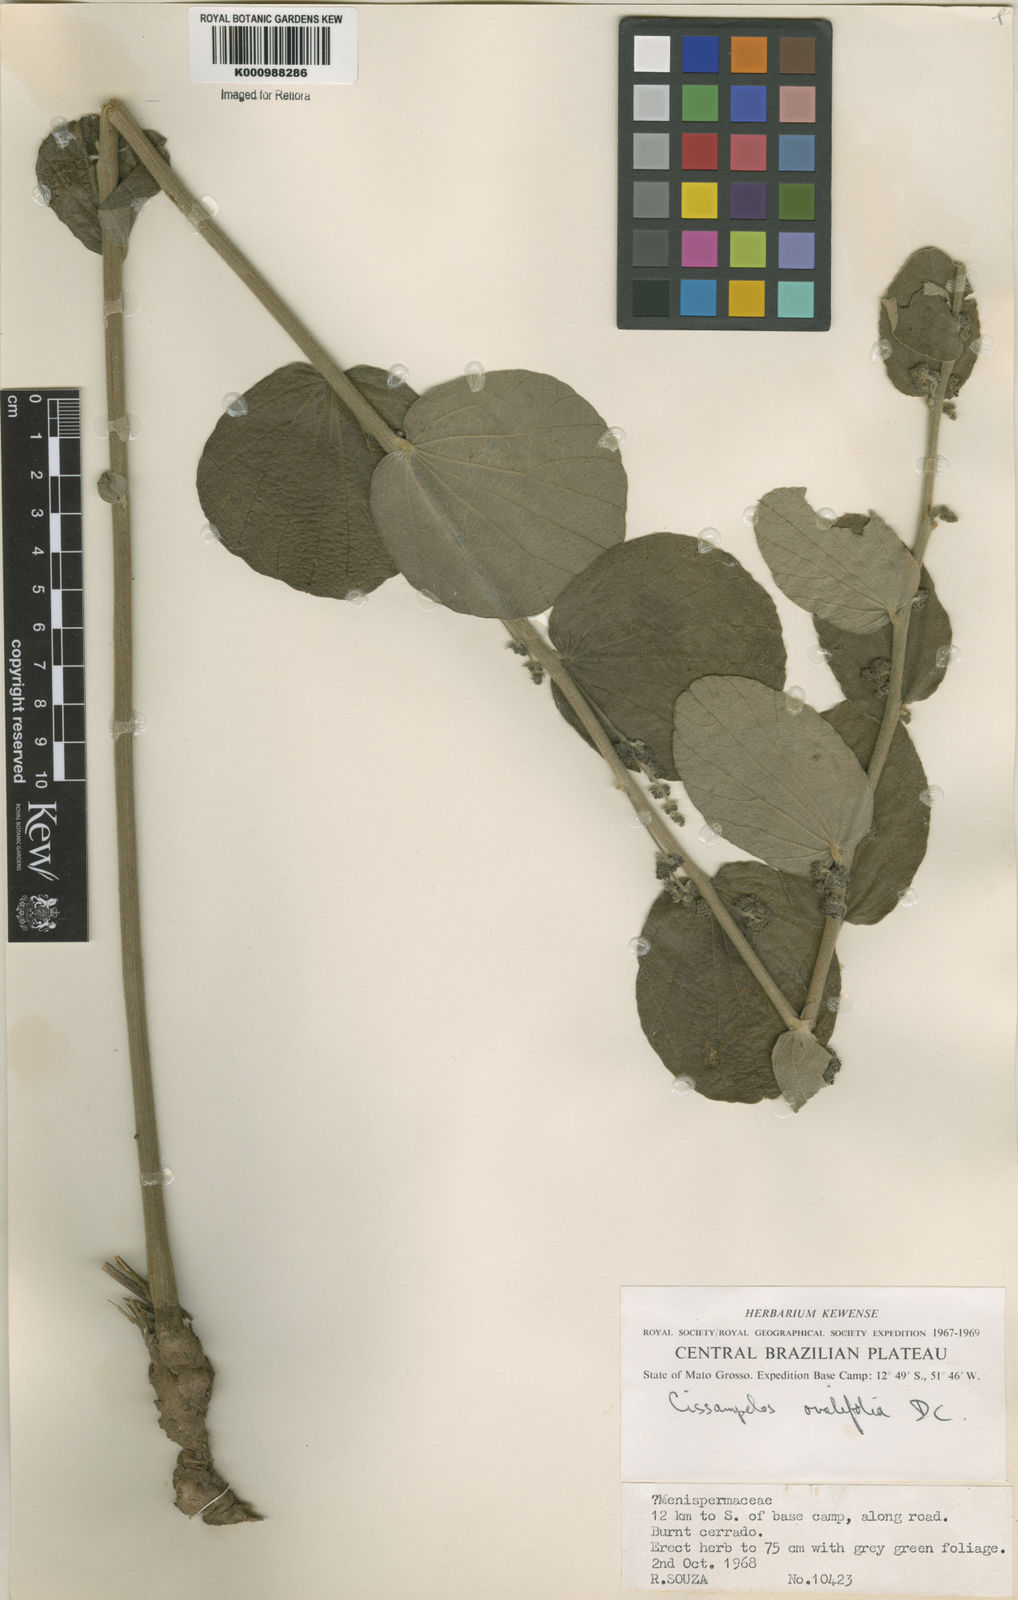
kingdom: Plantae
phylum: Tracheophyta
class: Magnoliopsida
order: Ranunculales
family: Menispermaceae
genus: Cissampelos
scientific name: Cissampelos ovalifolia
